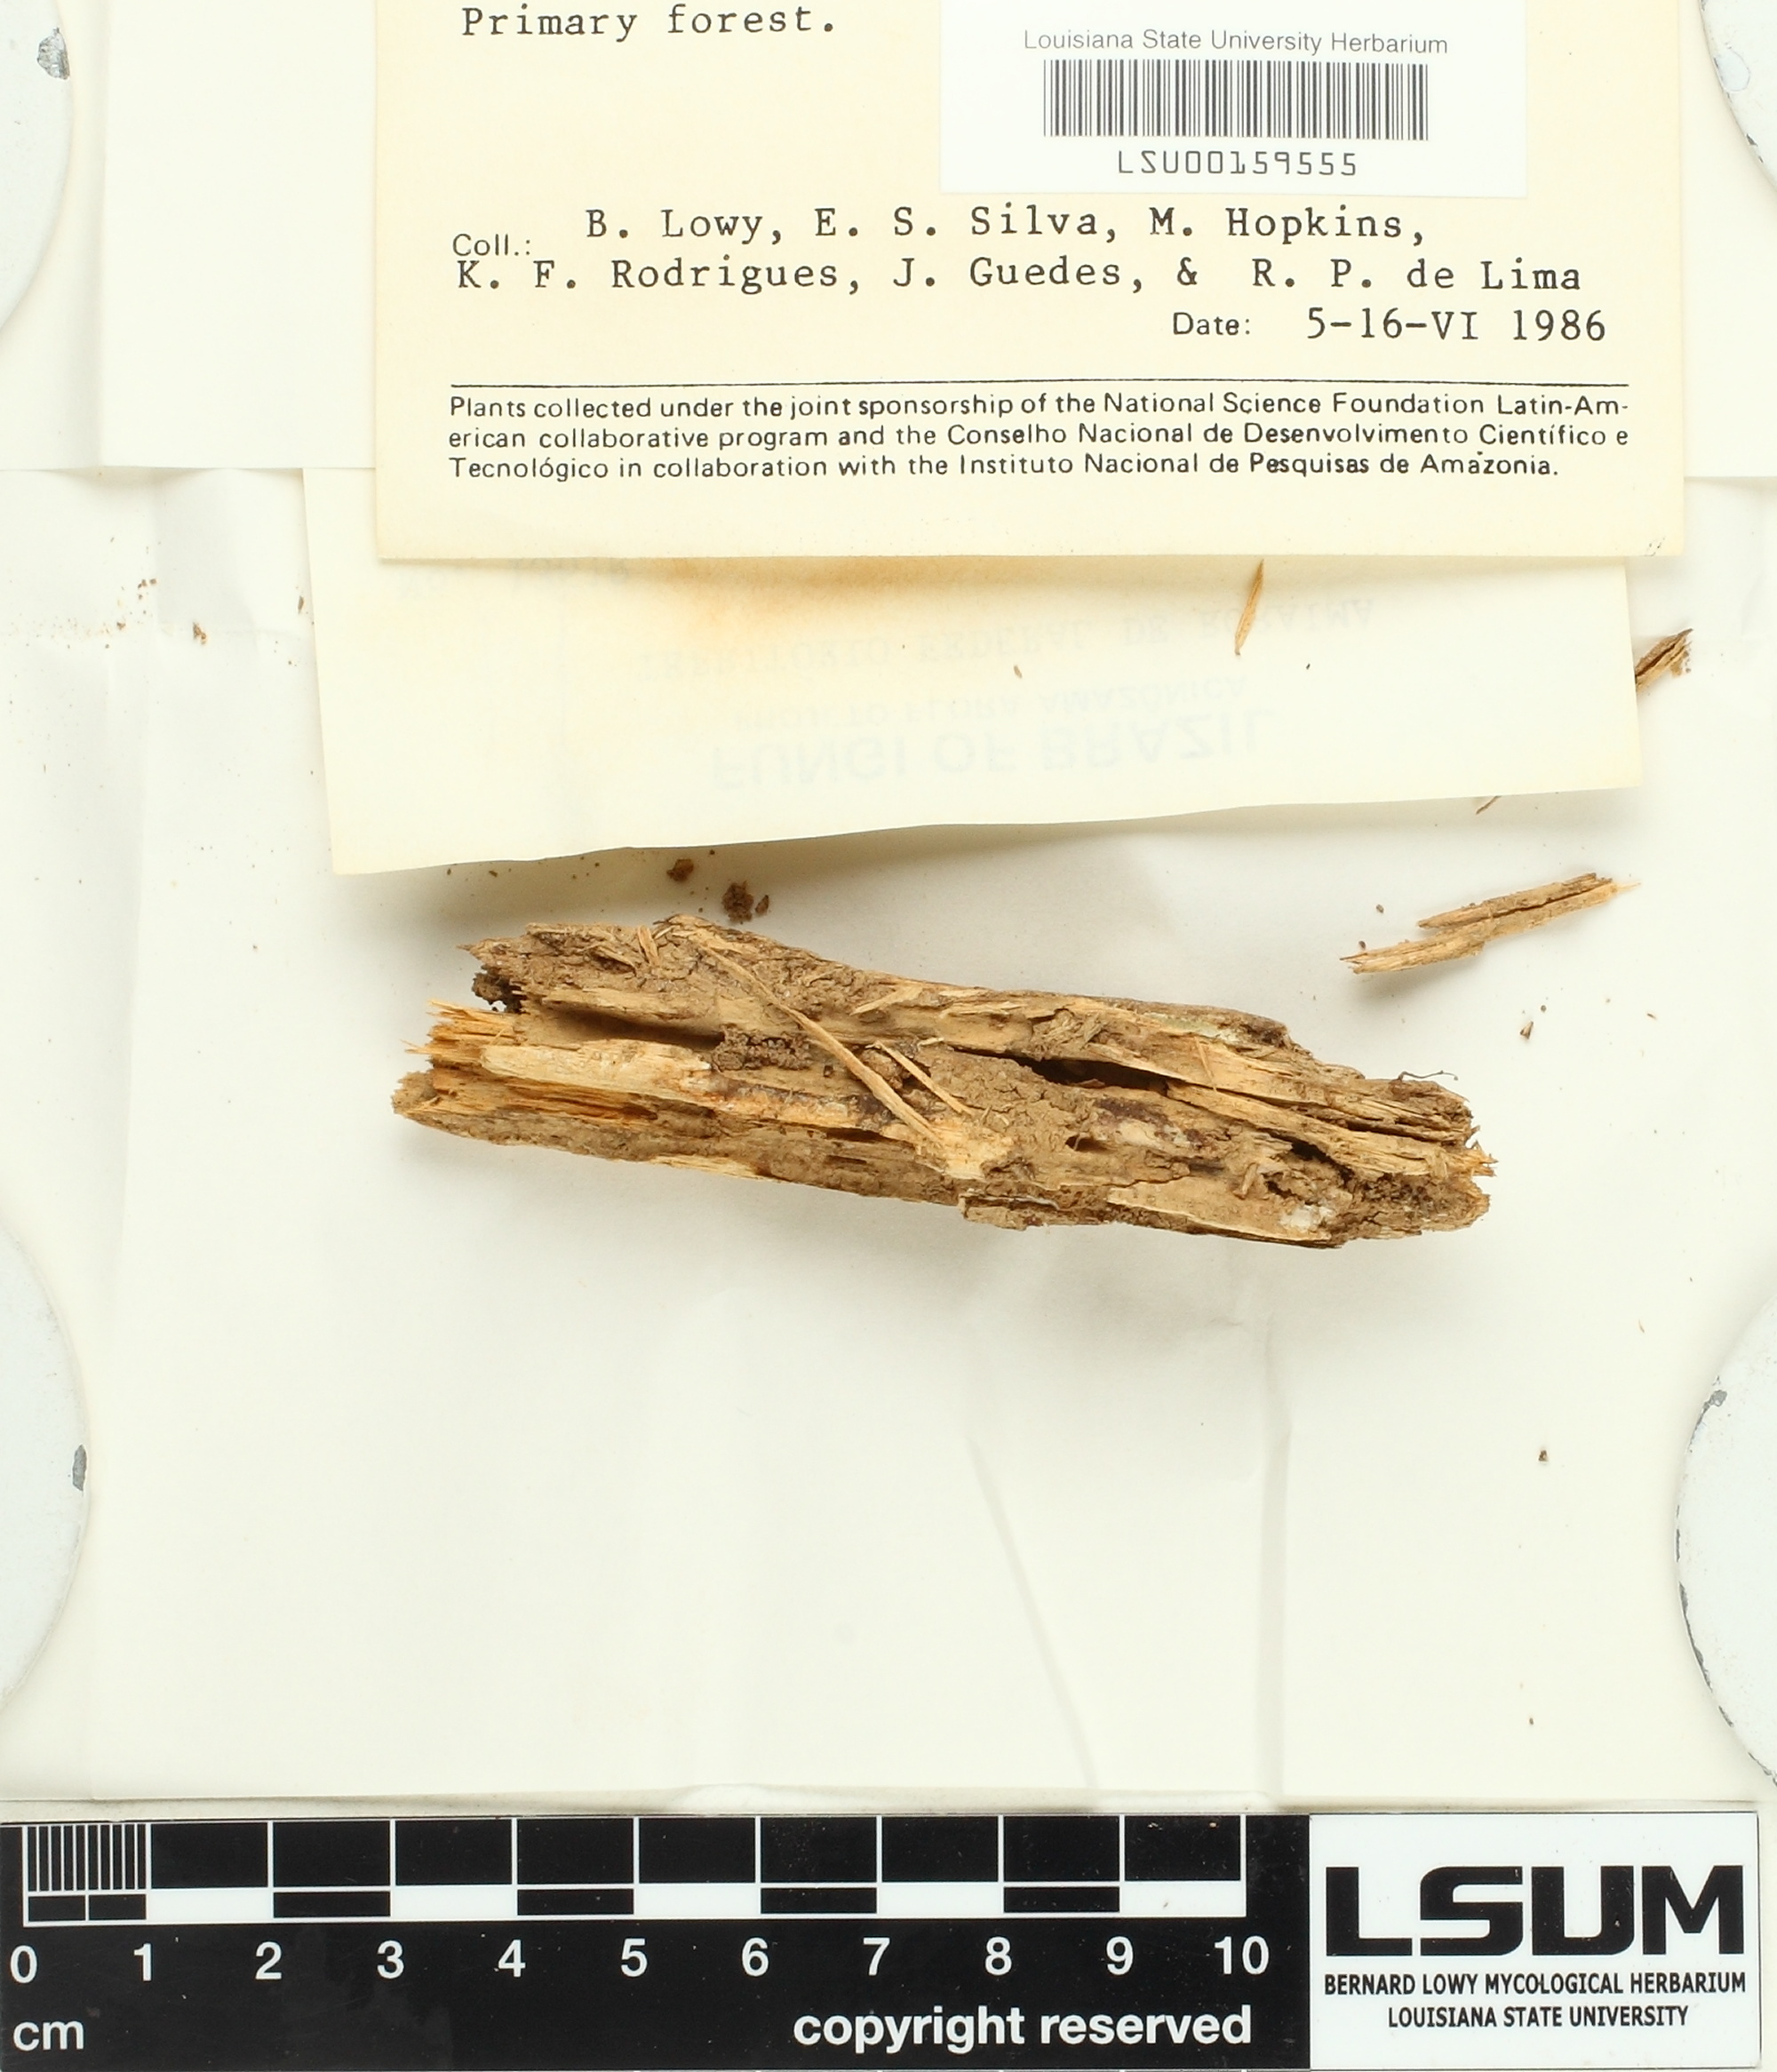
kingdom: Fungi
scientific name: Fungi
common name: Fungi
